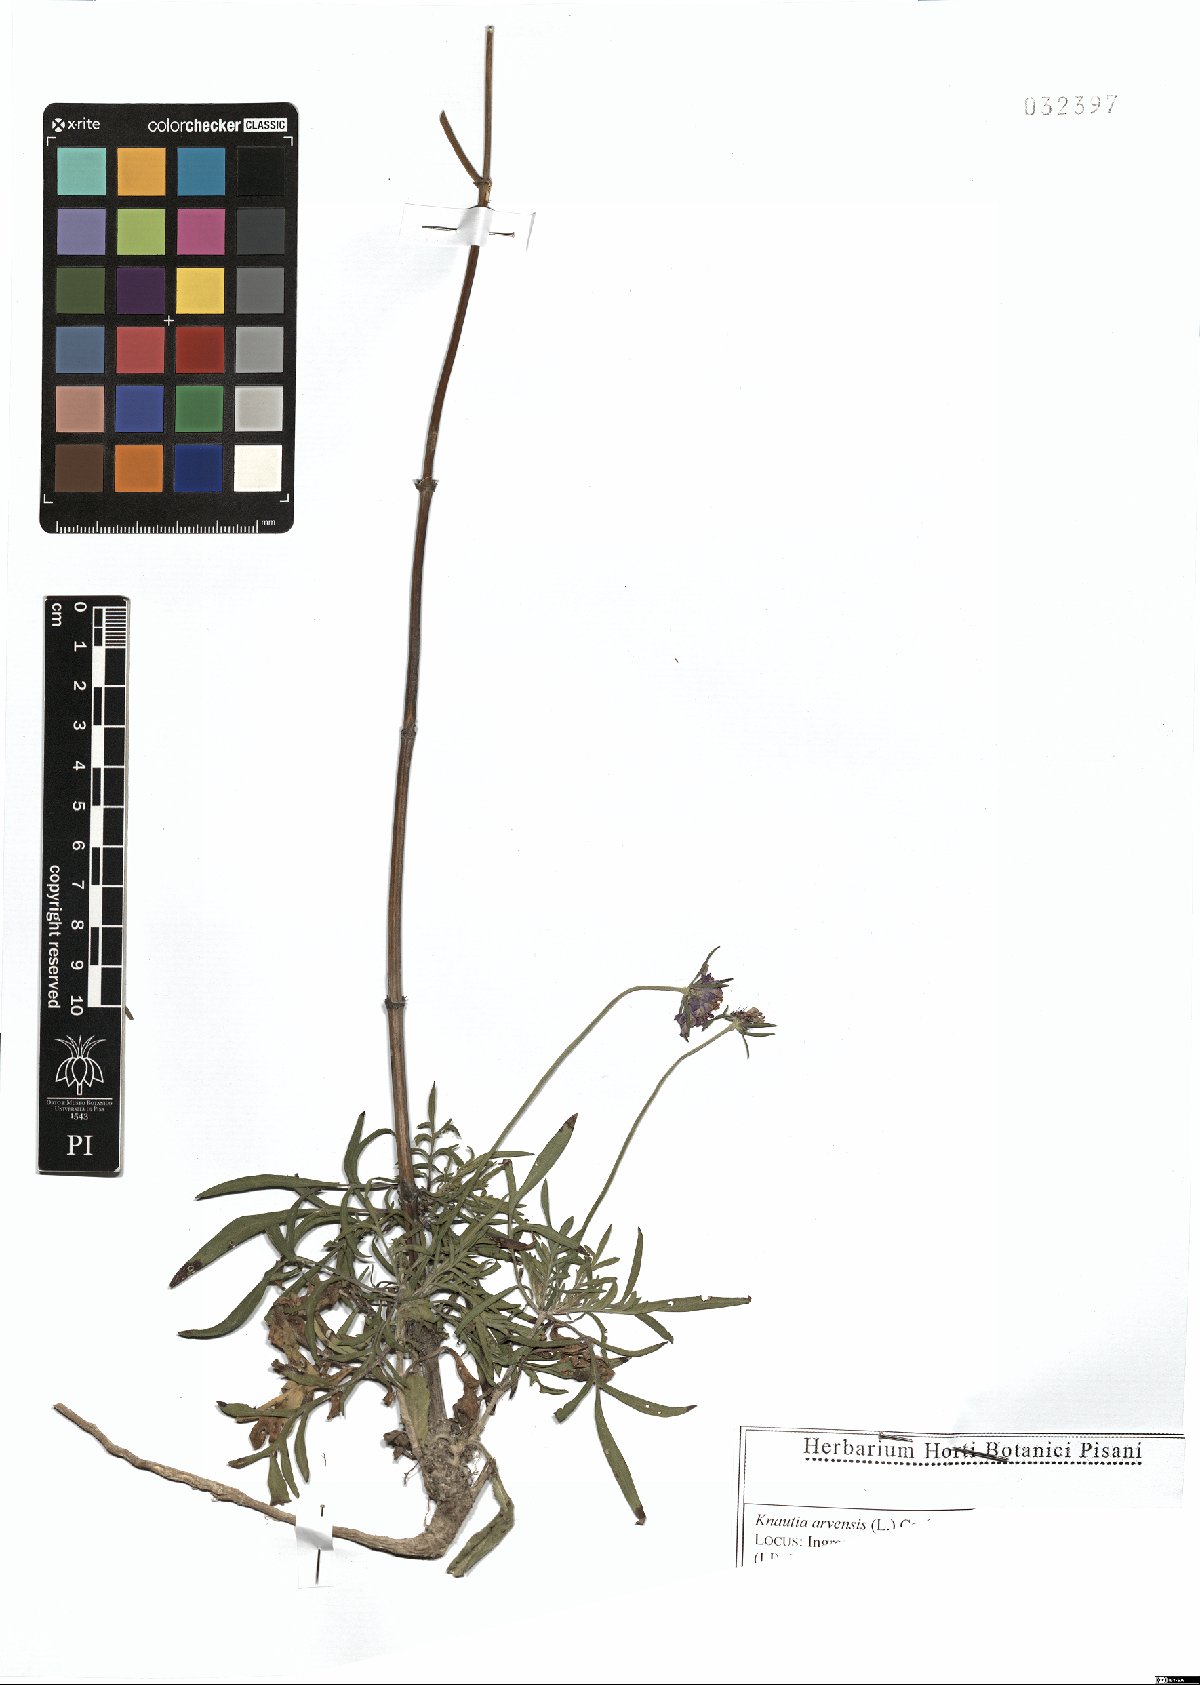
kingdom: Plantae
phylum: Tracheophyta
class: Magnoliopsida
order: Dipsacales
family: Caprifoliaceae
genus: Sixalix
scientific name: Sixalix atropurpurea
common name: Sweet scabious
